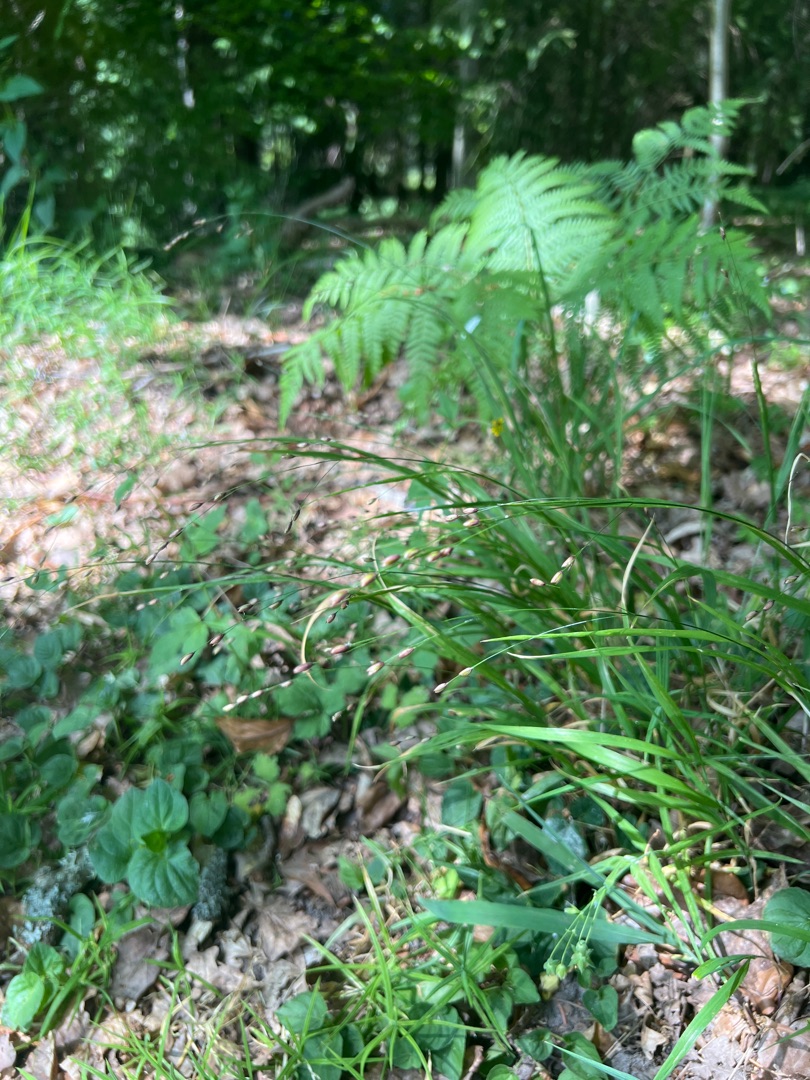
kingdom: Plantae
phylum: Tracheophyta
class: Liliopsida
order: Poales
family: Poaceae
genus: Melica
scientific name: Melica uniflora
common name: Enblomstret flitteraks
